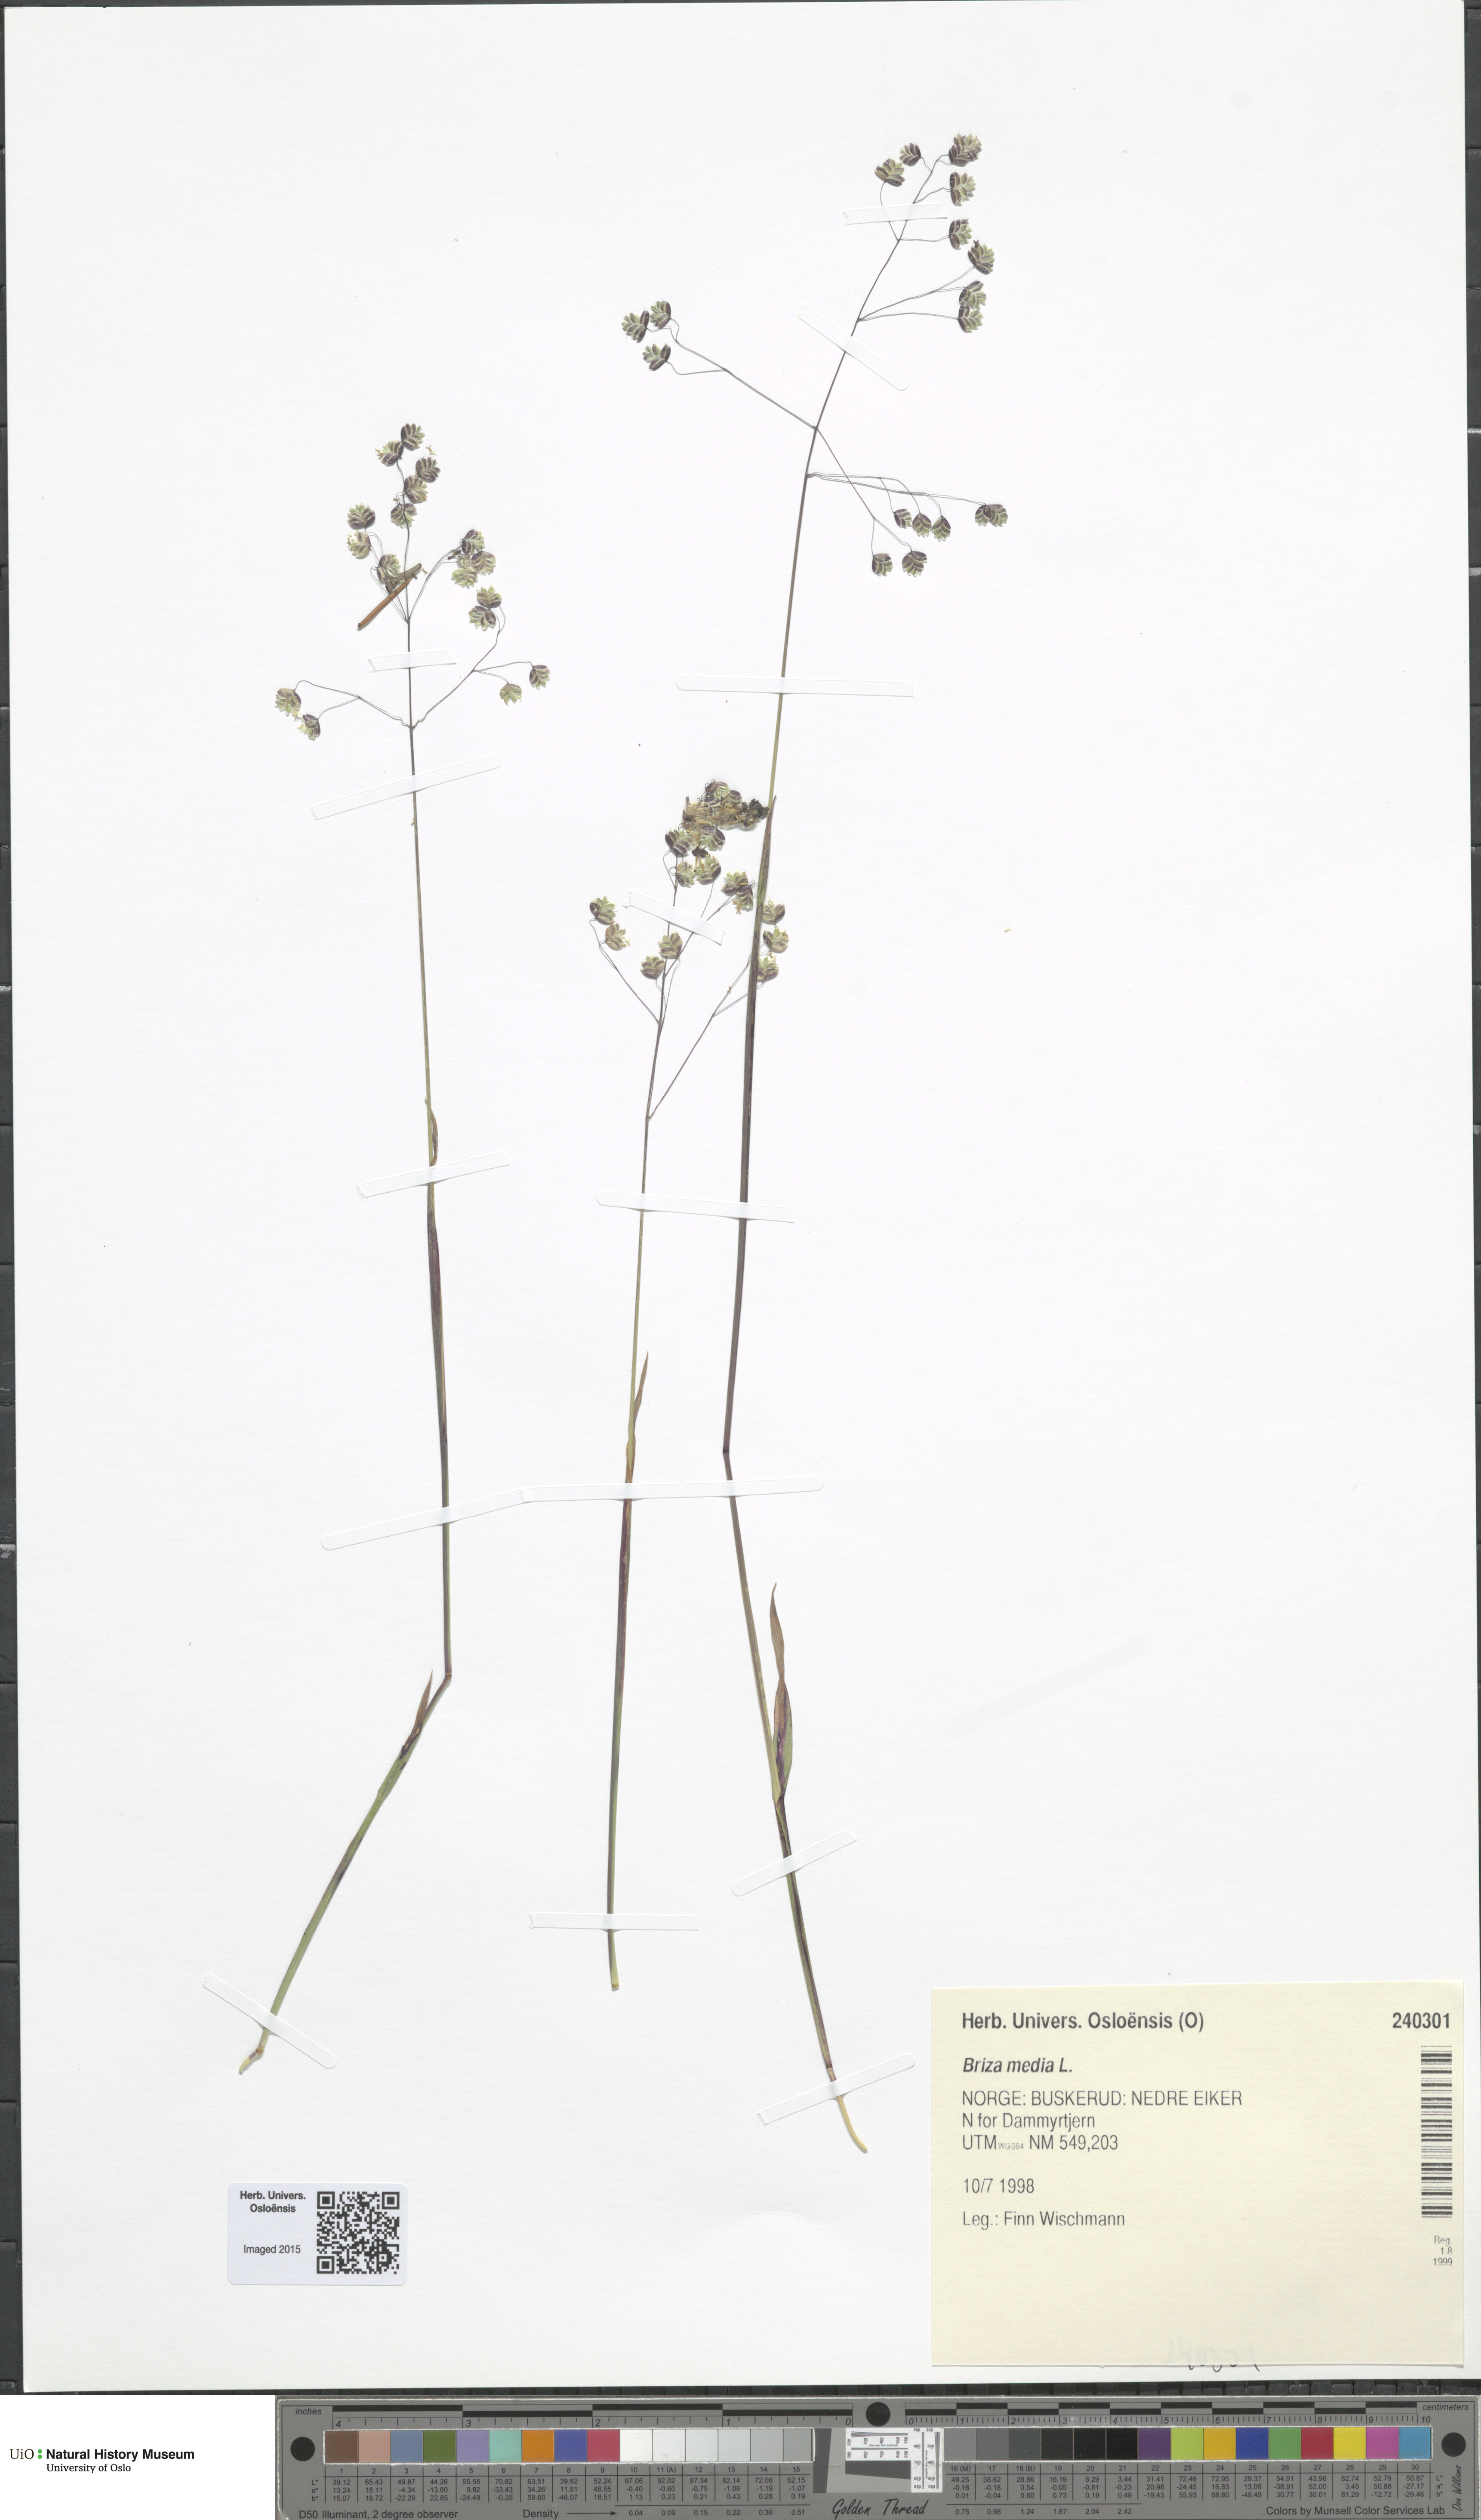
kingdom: Plantae
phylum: Tracheophyta
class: Liliopsida
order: Poales
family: Poaceae
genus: Briza
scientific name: Briza media
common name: Quaking grass
